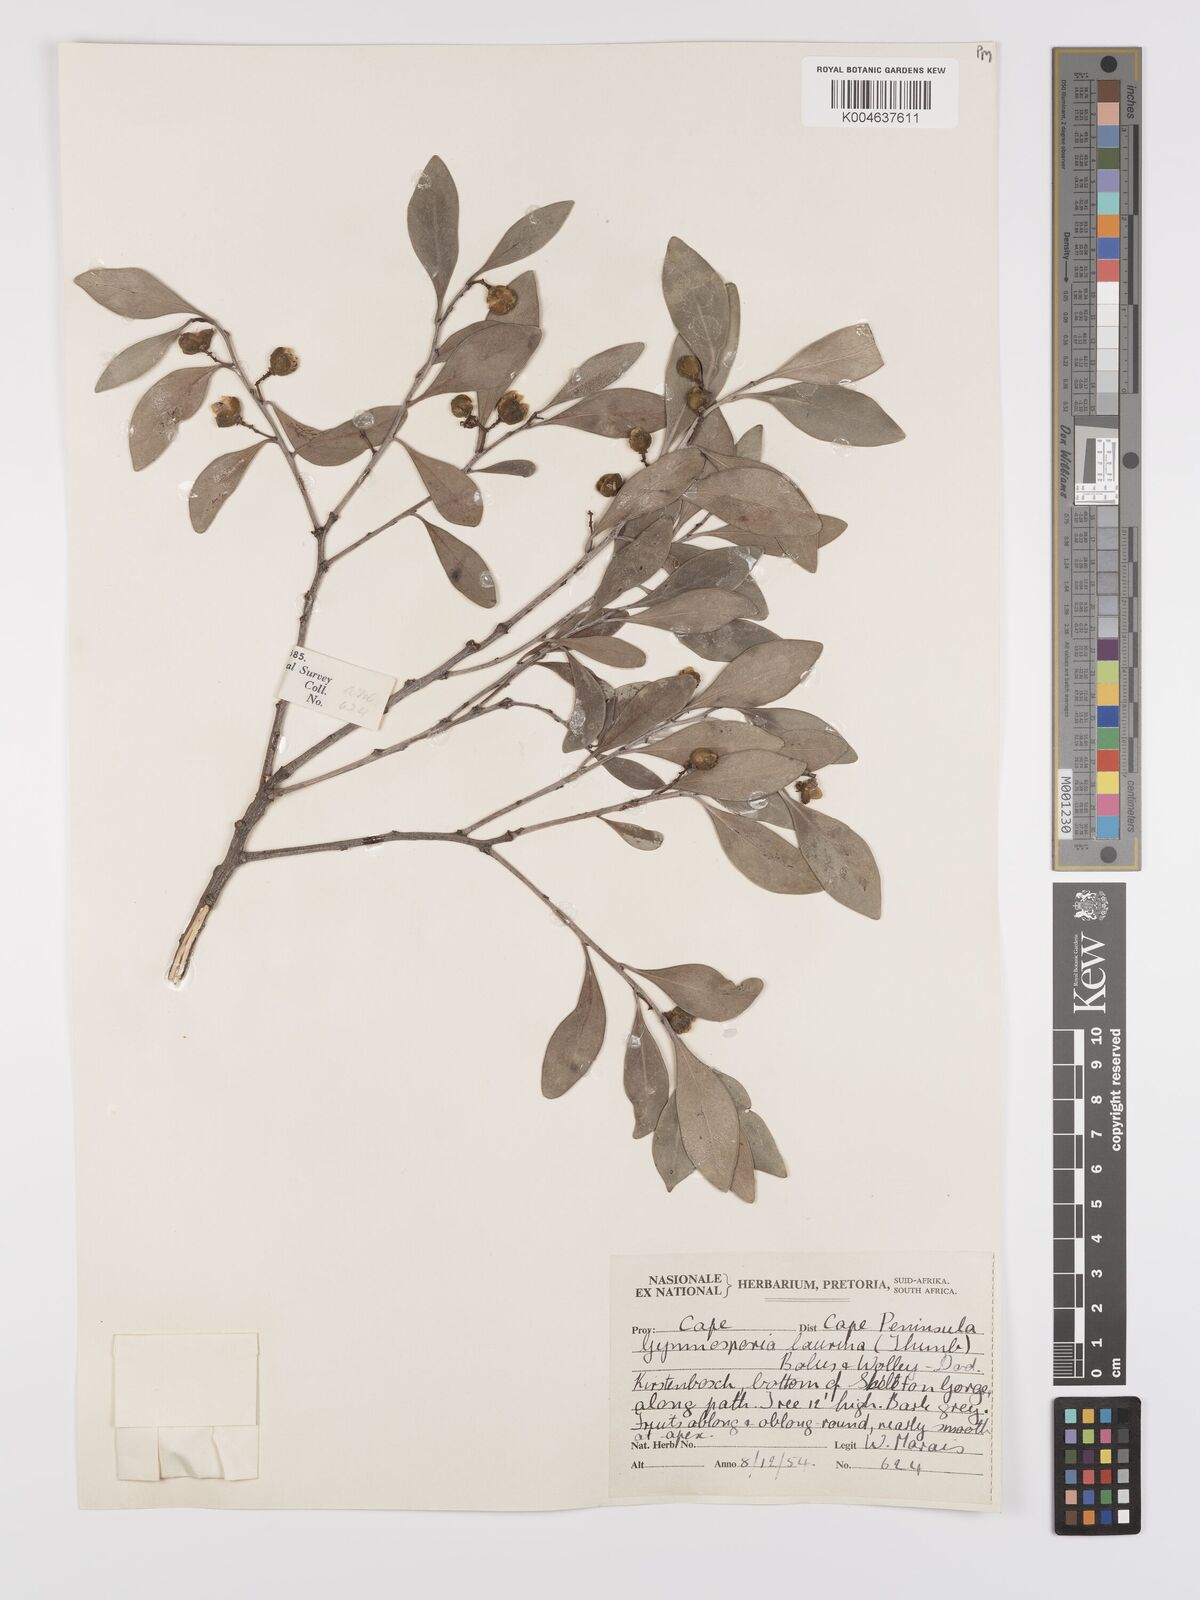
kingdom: Plantae
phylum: Tracheophyta
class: Magnoliopsida
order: Celastrales
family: Celastraceae
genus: Monteverdia
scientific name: Monteverdia laurina
